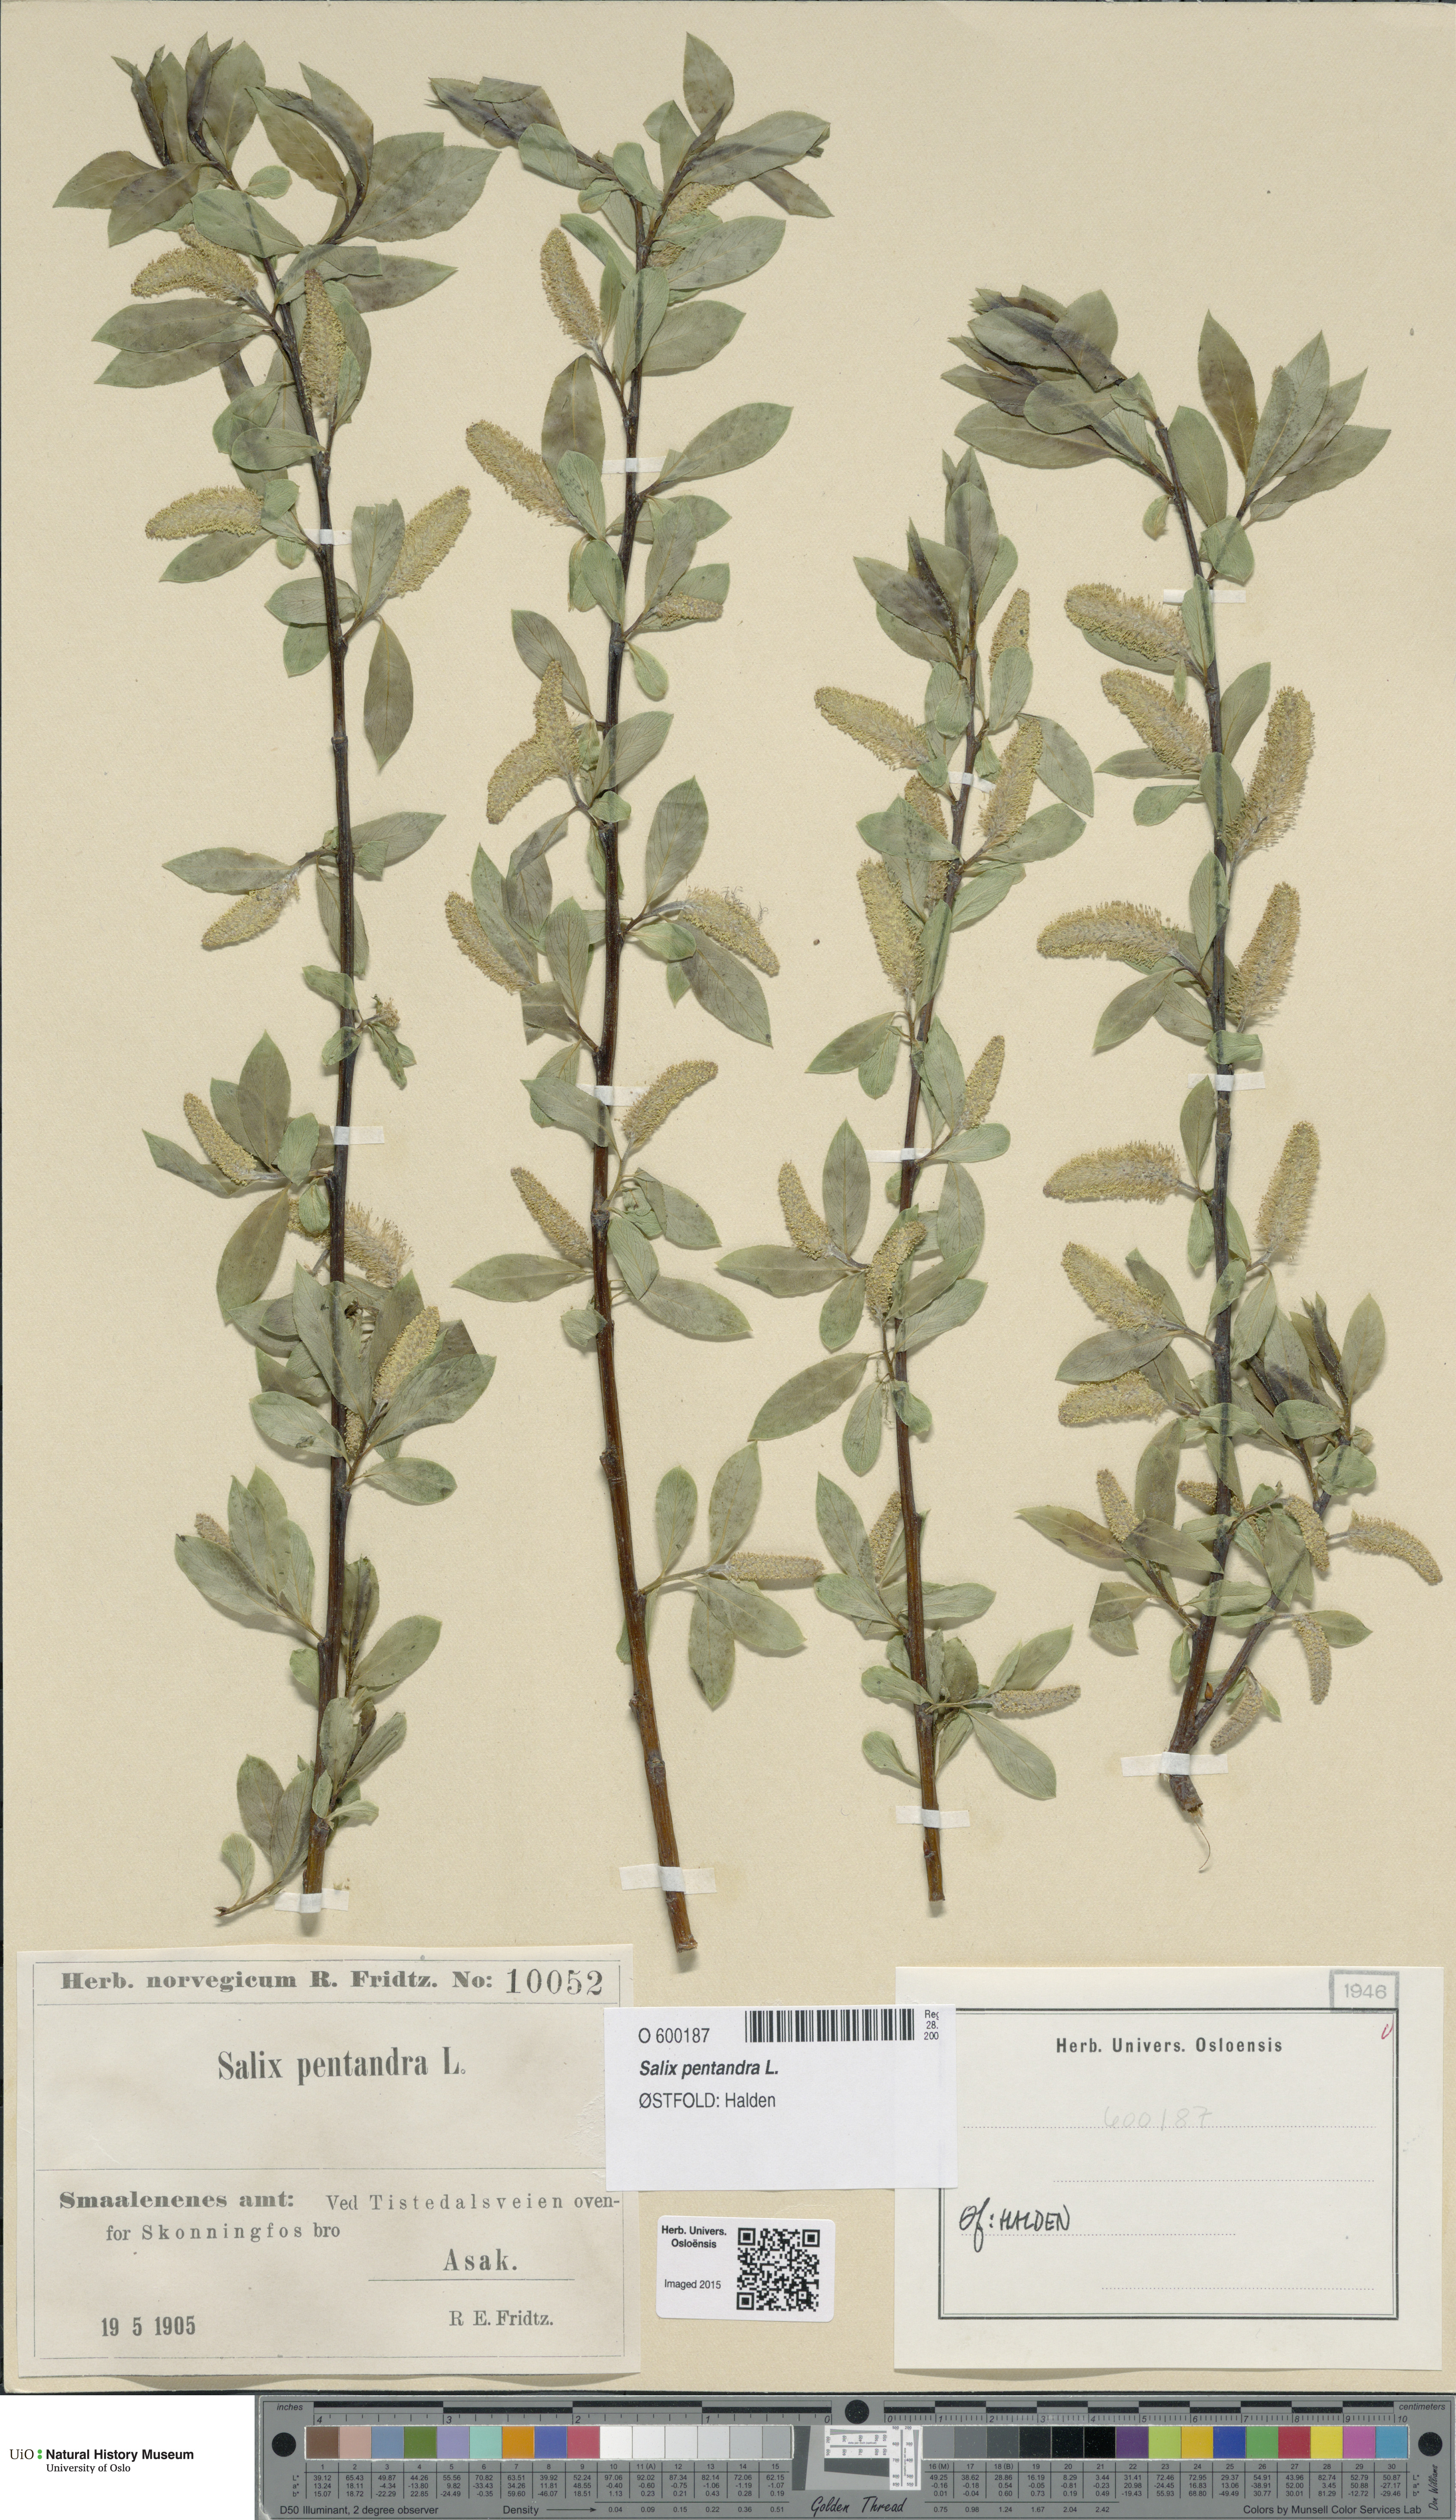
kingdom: Plantae
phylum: Tracheophyta
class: Magnoliopsida
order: Malpighiales
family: Salicaceae
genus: Salix
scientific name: Salix pentandra
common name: Bay willow
